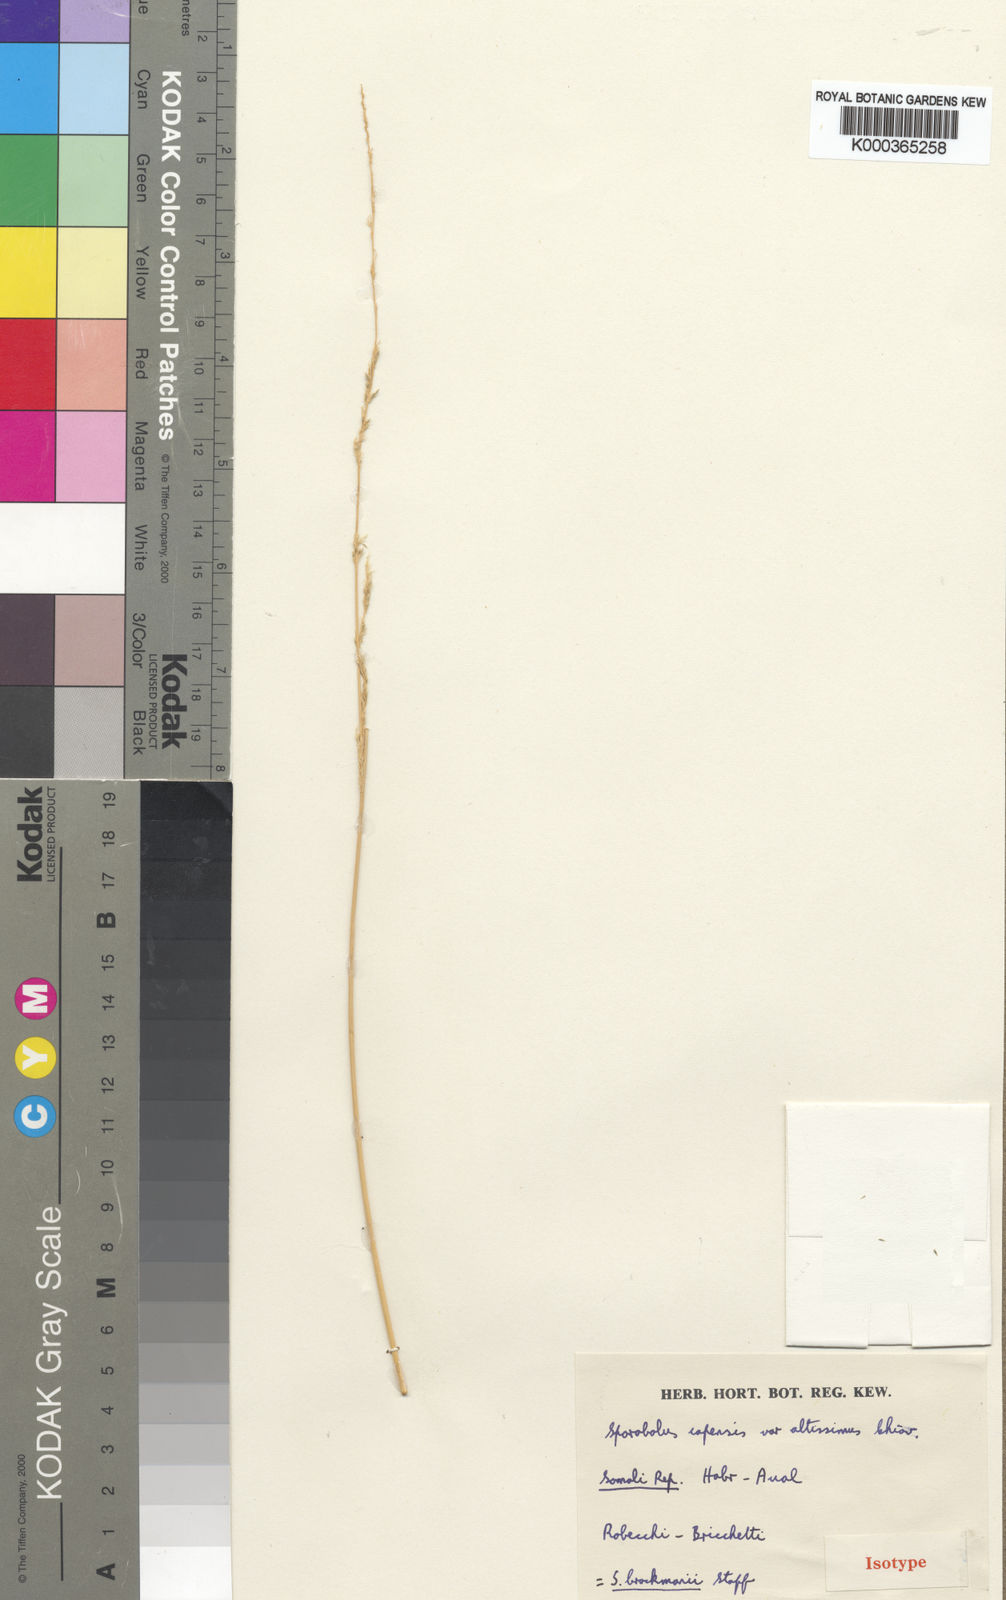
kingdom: Plantae
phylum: Tracheophyta
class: Liliopsida
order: Poales
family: Poaceae
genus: Sporobolus
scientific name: Sporobolus brockmanii
